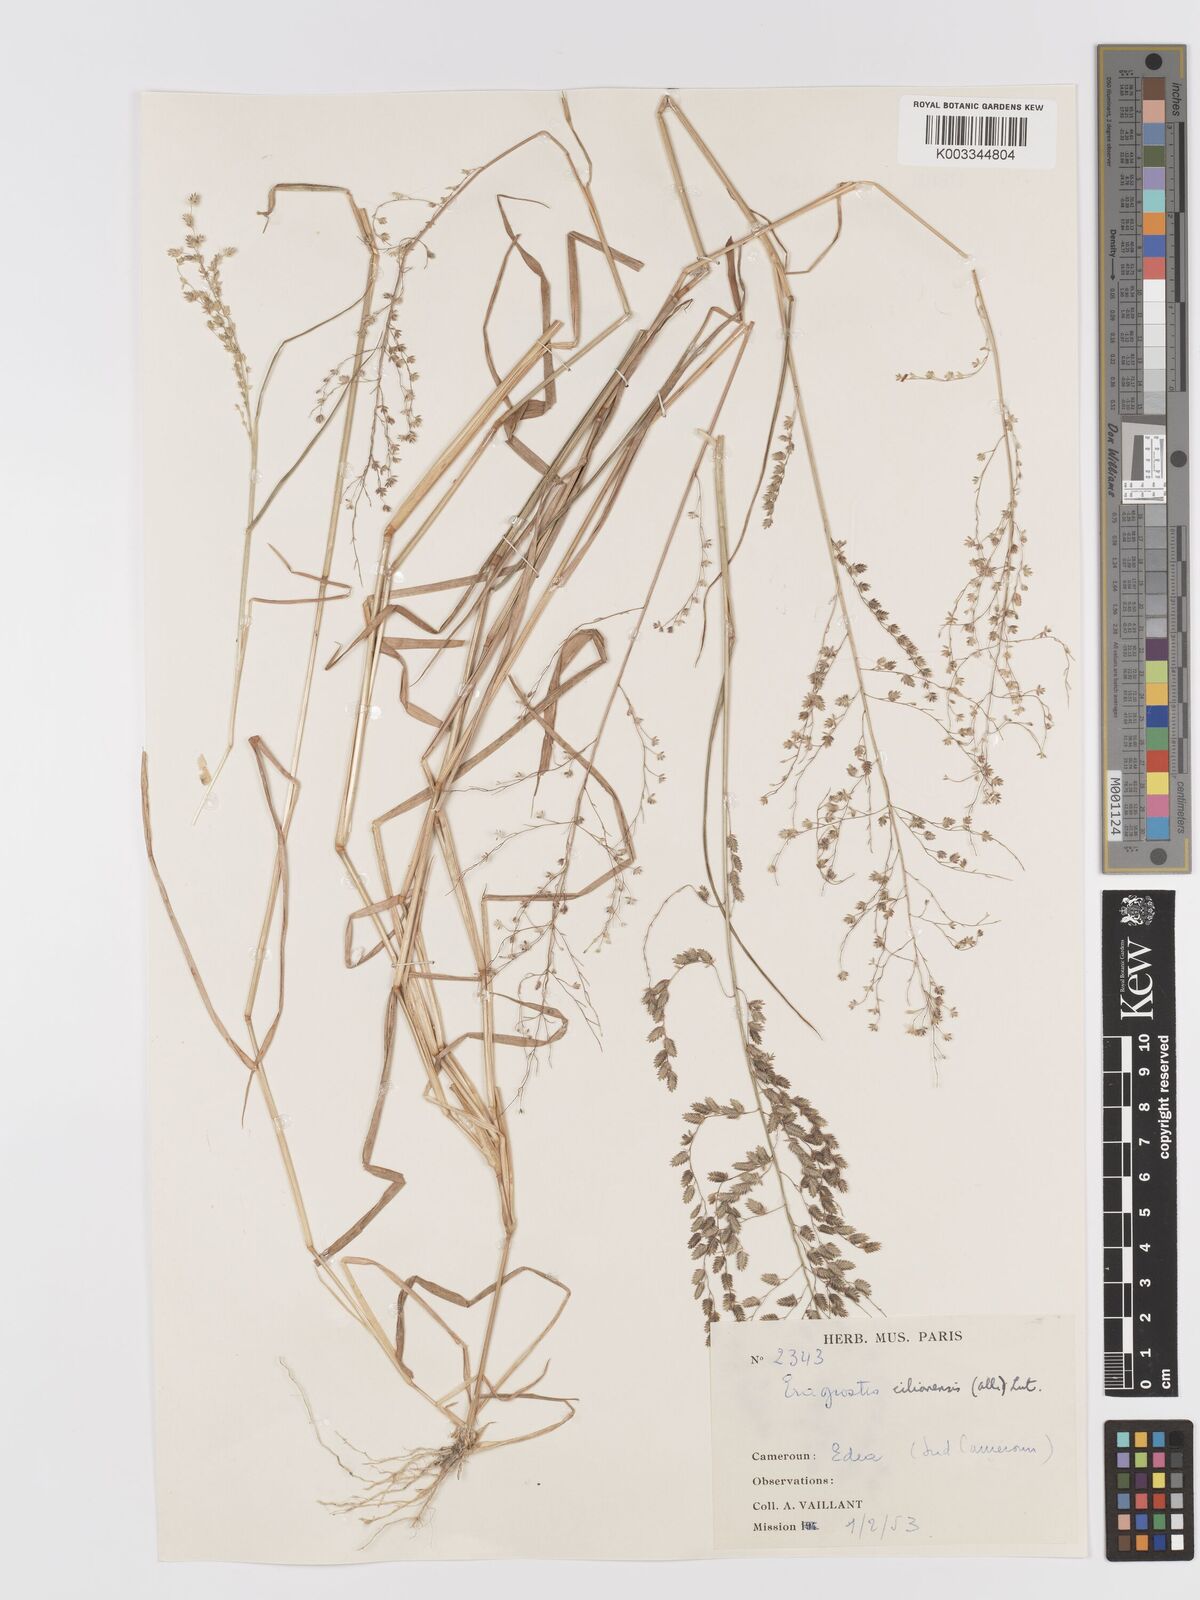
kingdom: Plantae
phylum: Tracheophyta
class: Liliopsida
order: Poales
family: Poaceae
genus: Eragrostis
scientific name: Eragrostis scotelliana
